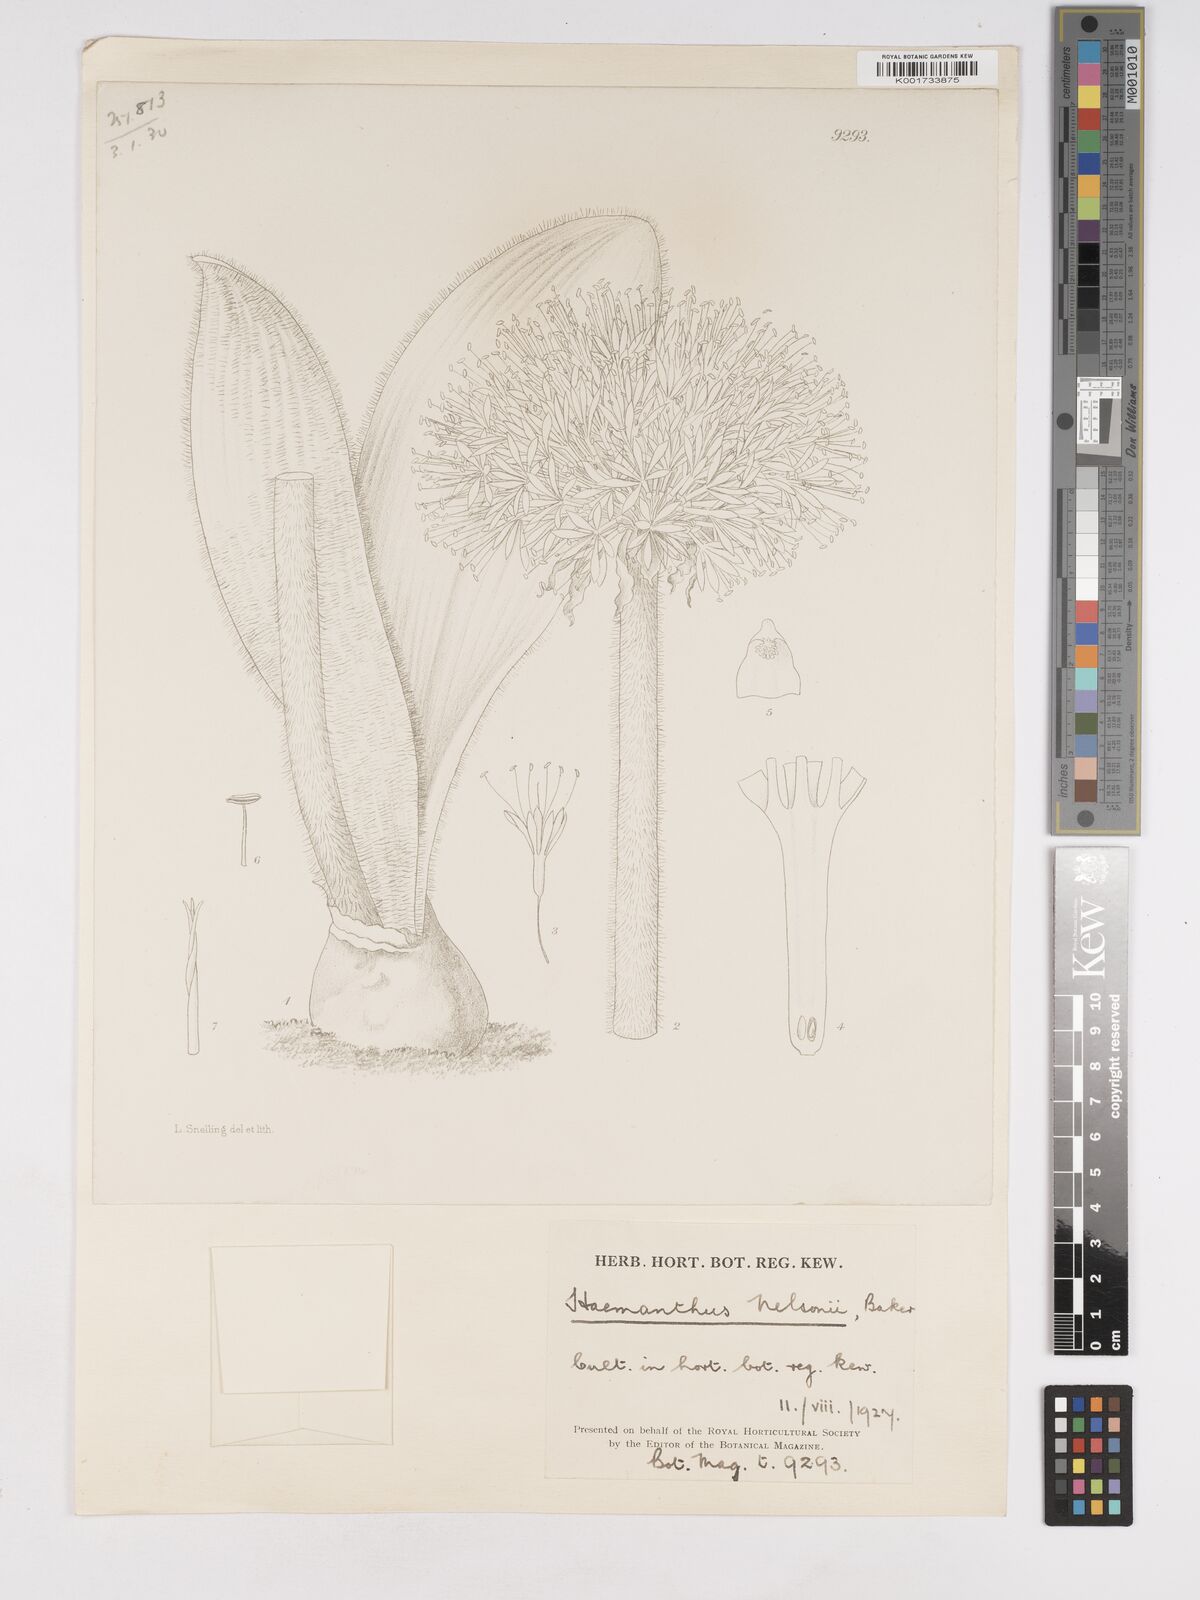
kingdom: Plantae
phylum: Tracheophyta
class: Liliopsida
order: Asparagales
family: Amaryllidaceae
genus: Haemanthus
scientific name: Haemanthus humilis
